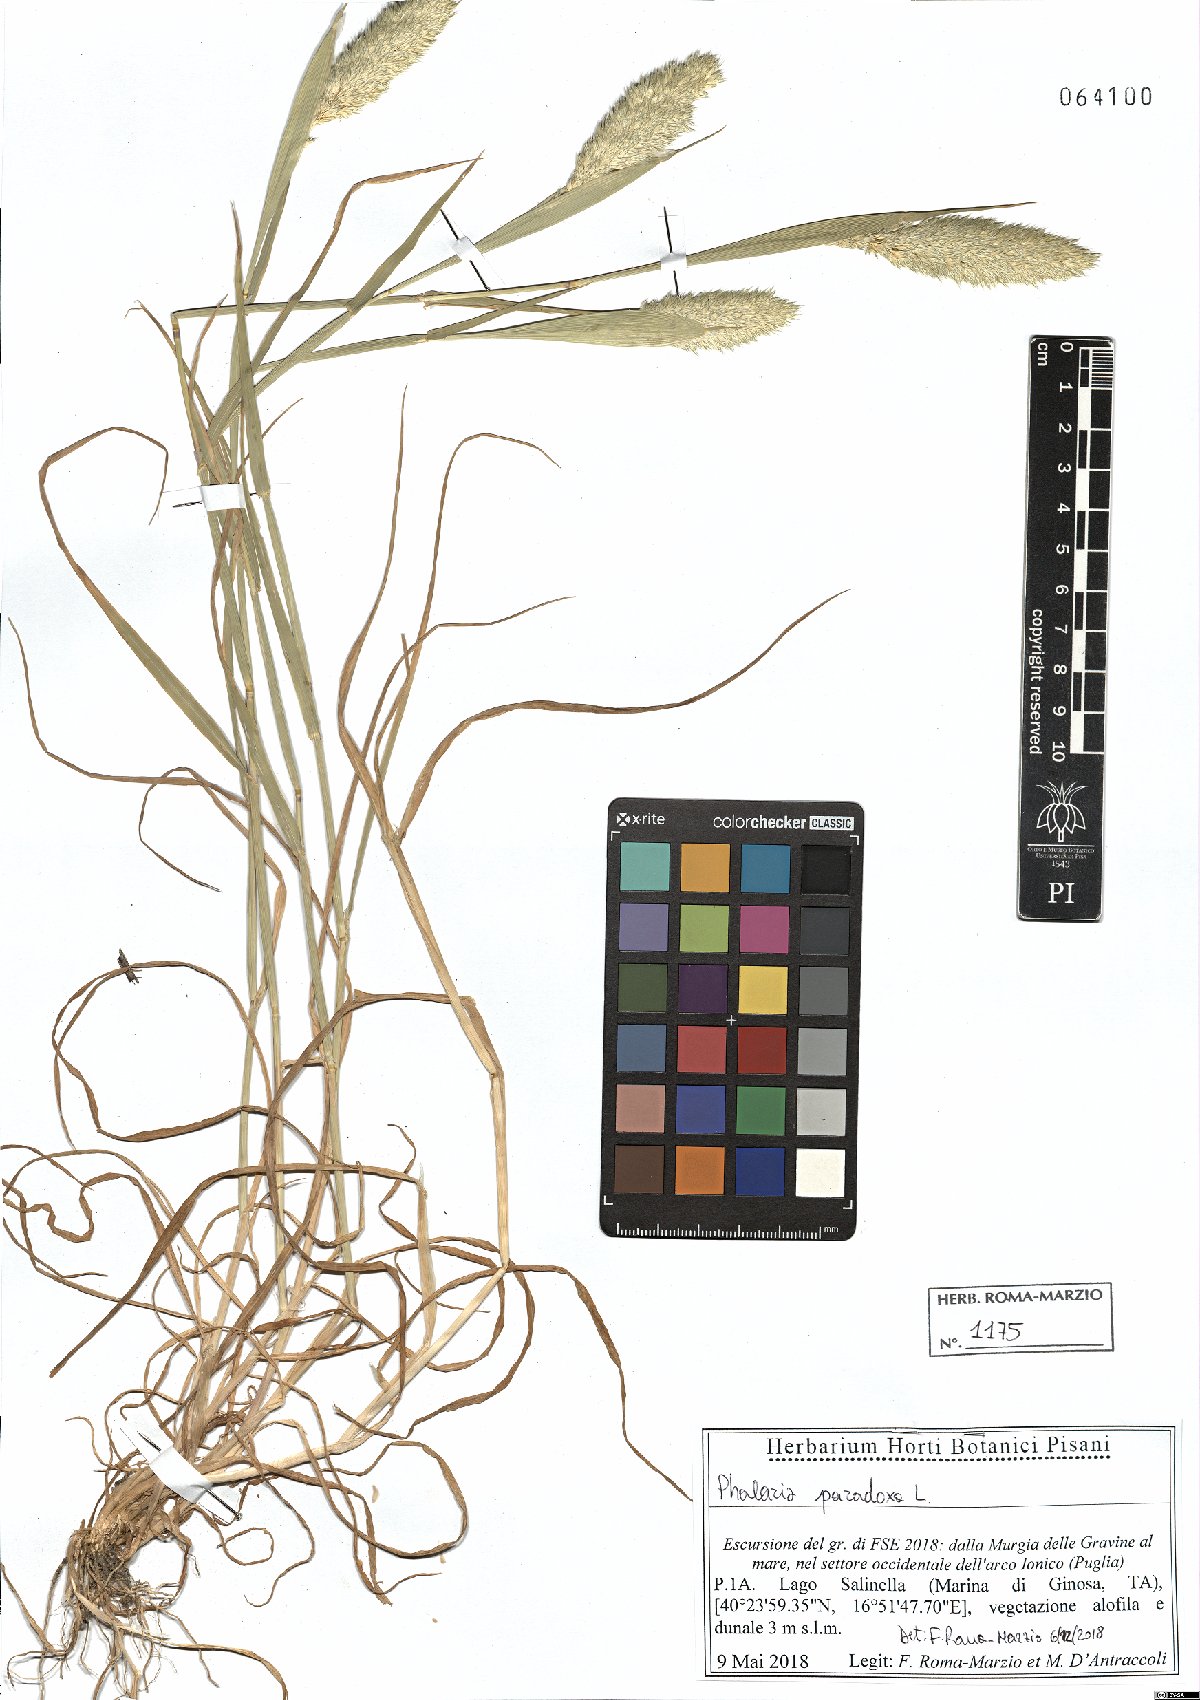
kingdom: Plantae
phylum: Tracheophyta
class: Liliopsida
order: Poales
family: Poaceae
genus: Phalaris
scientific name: Phalaris paradoxa
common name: Awned canary-grass
